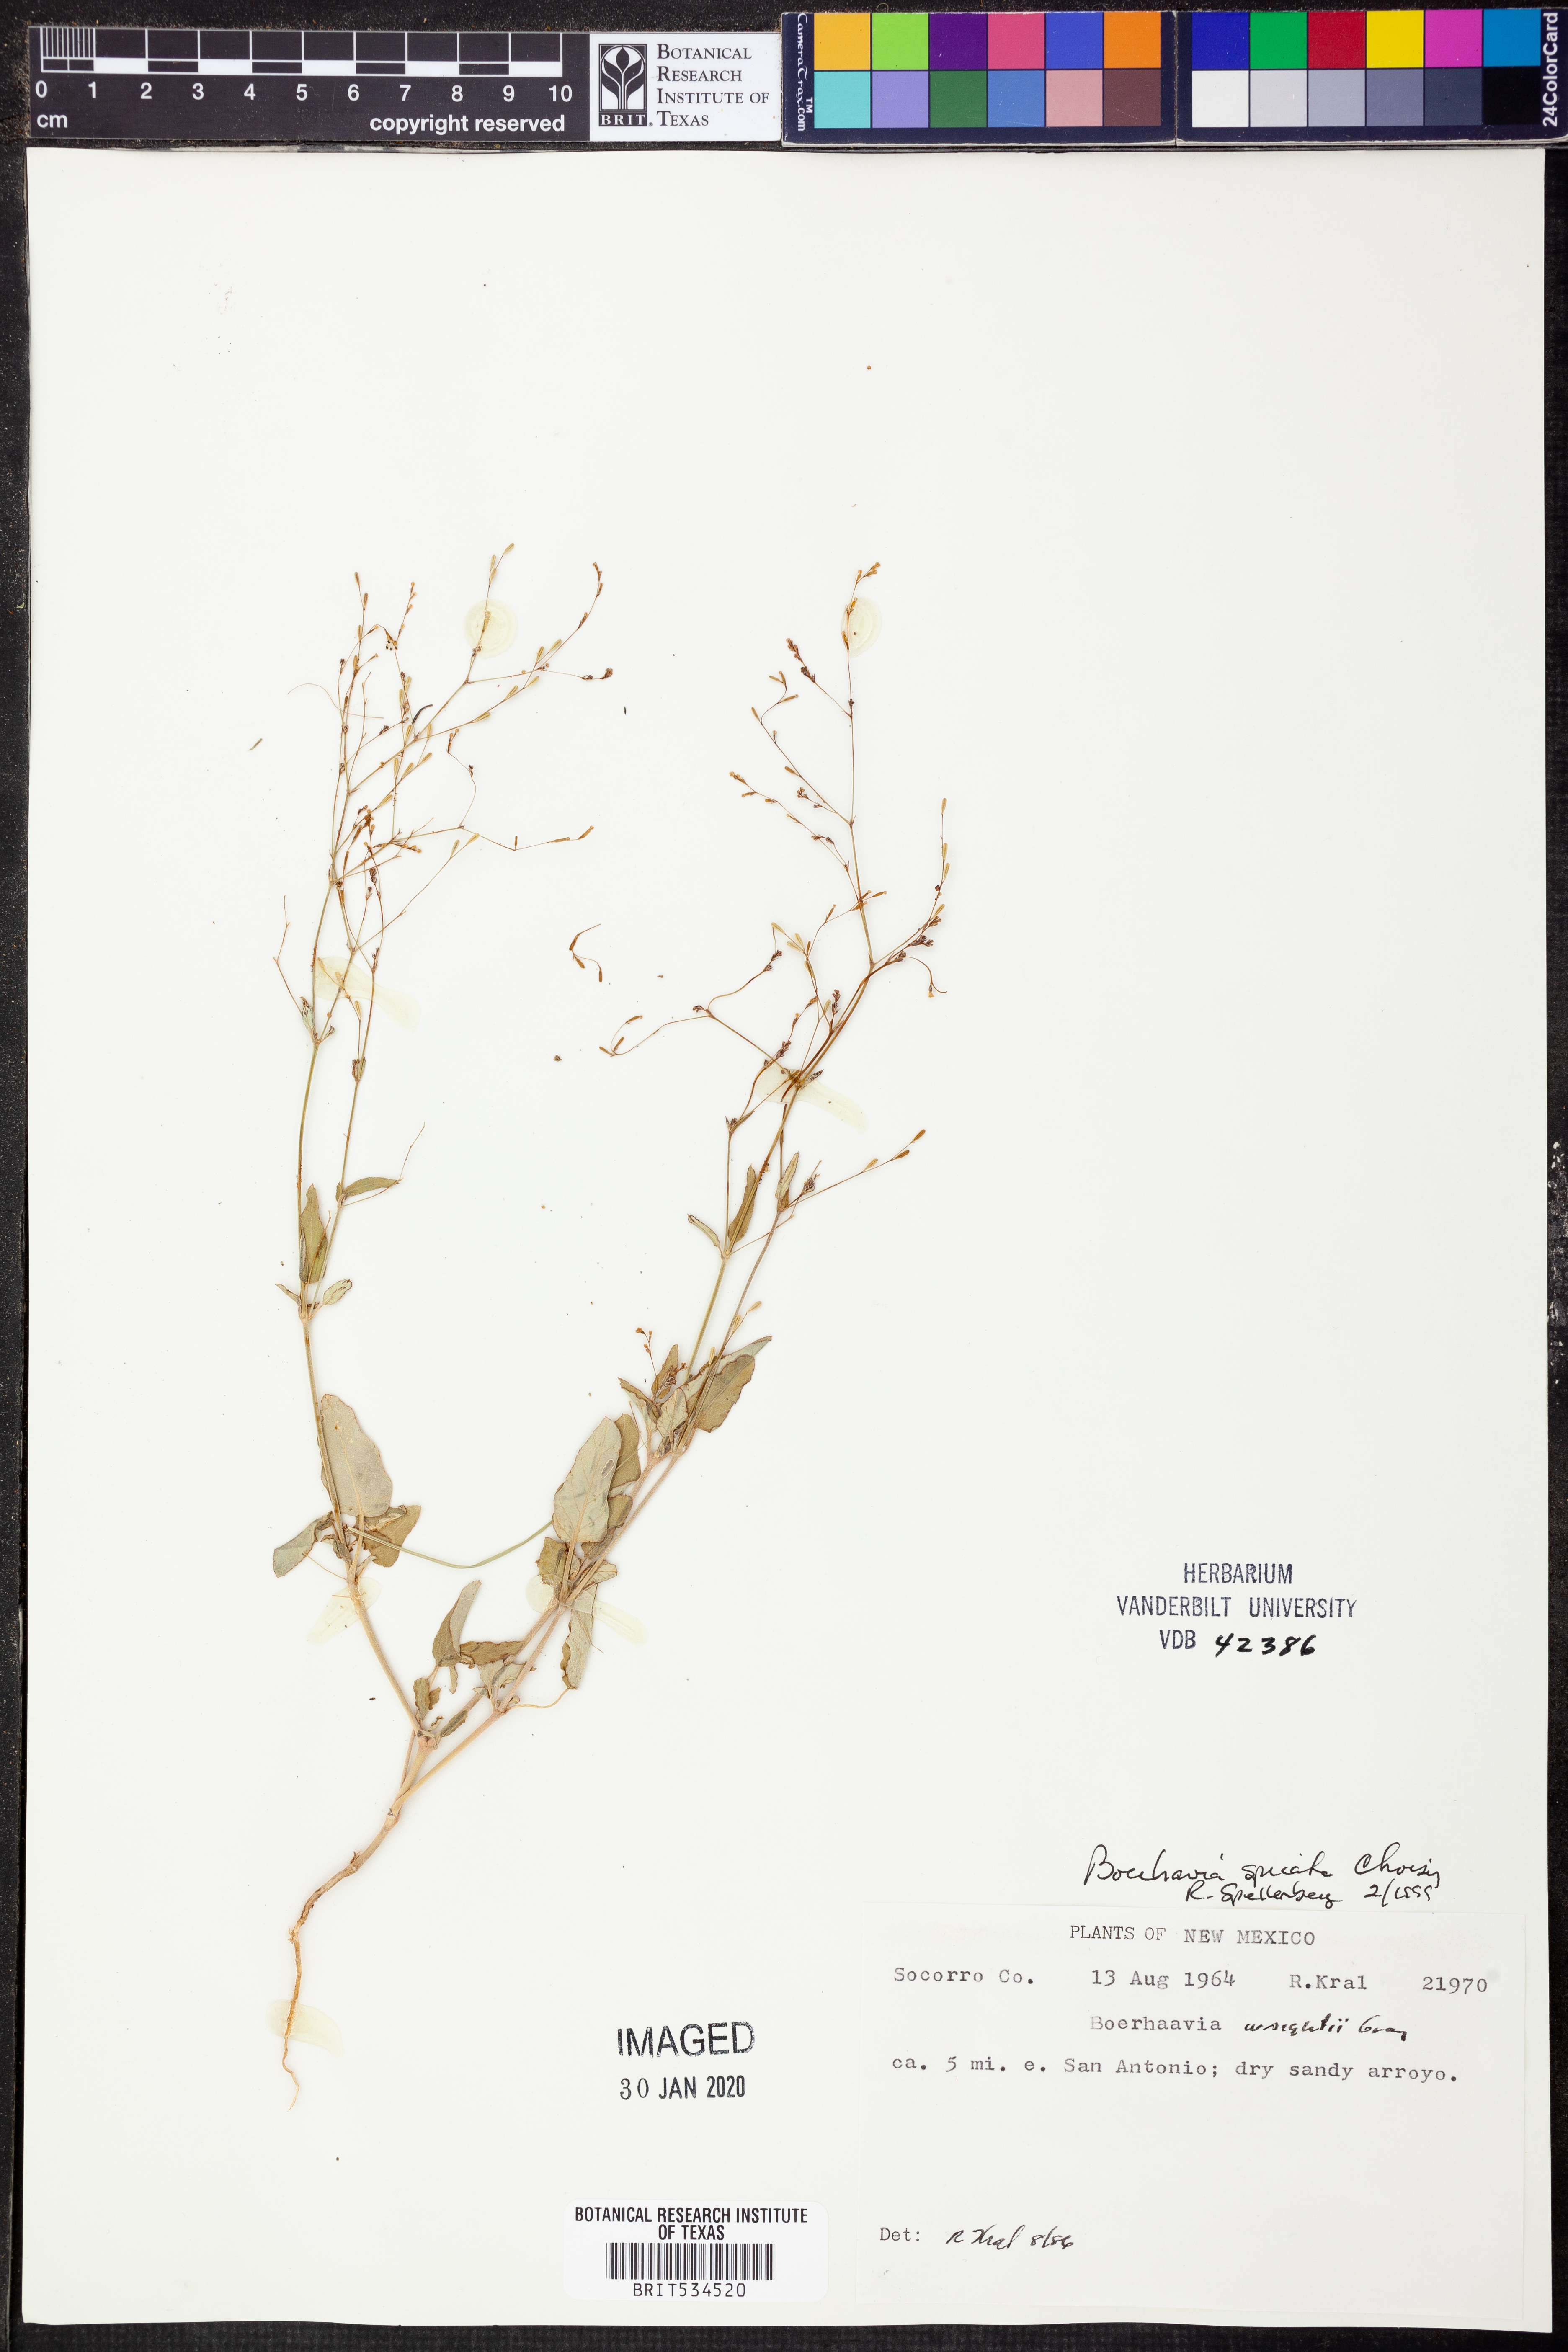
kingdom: Plantae
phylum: Tracheophyta
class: Magnoliopsida
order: Caryophyllales
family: Nyctaginaceae
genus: Boerhavia
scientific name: Boerhavia spicata
